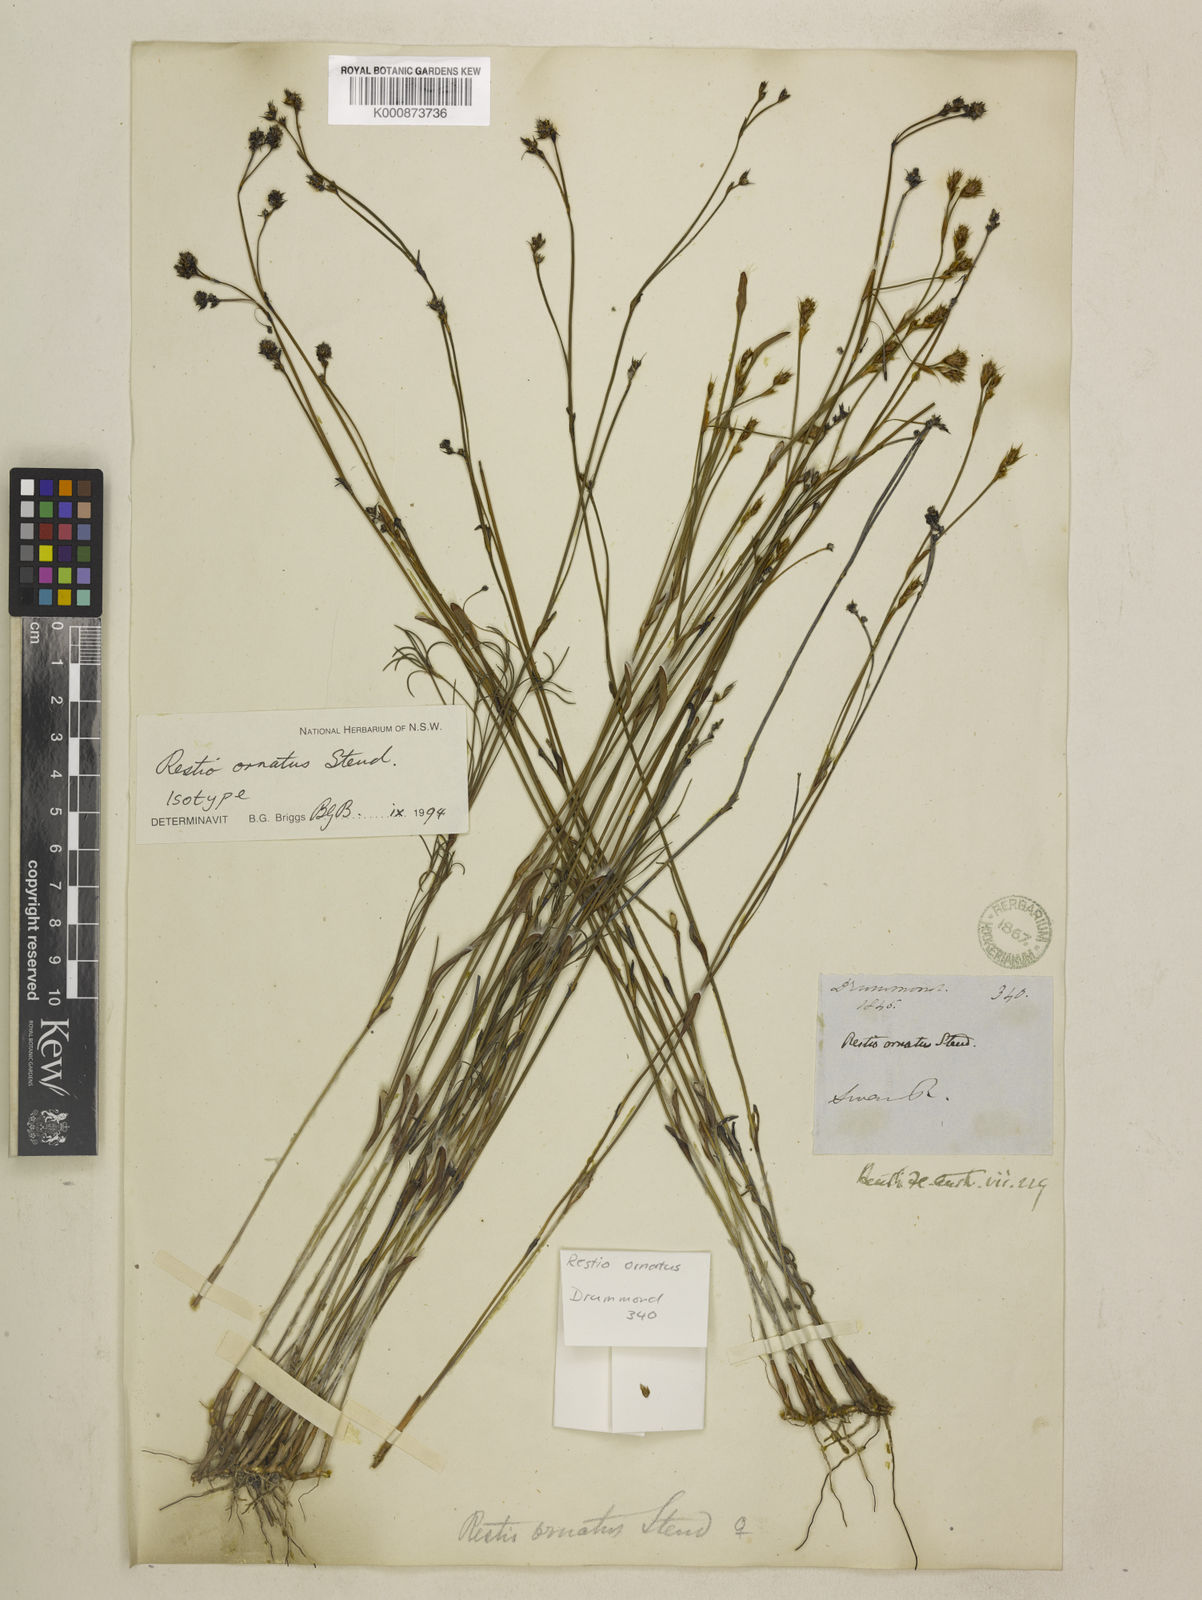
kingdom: Plantae
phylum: Tracheophyta
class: Liliopsida
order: Poales
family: Restionaceae
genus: Chordifex
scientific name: Chordifex ornatus
